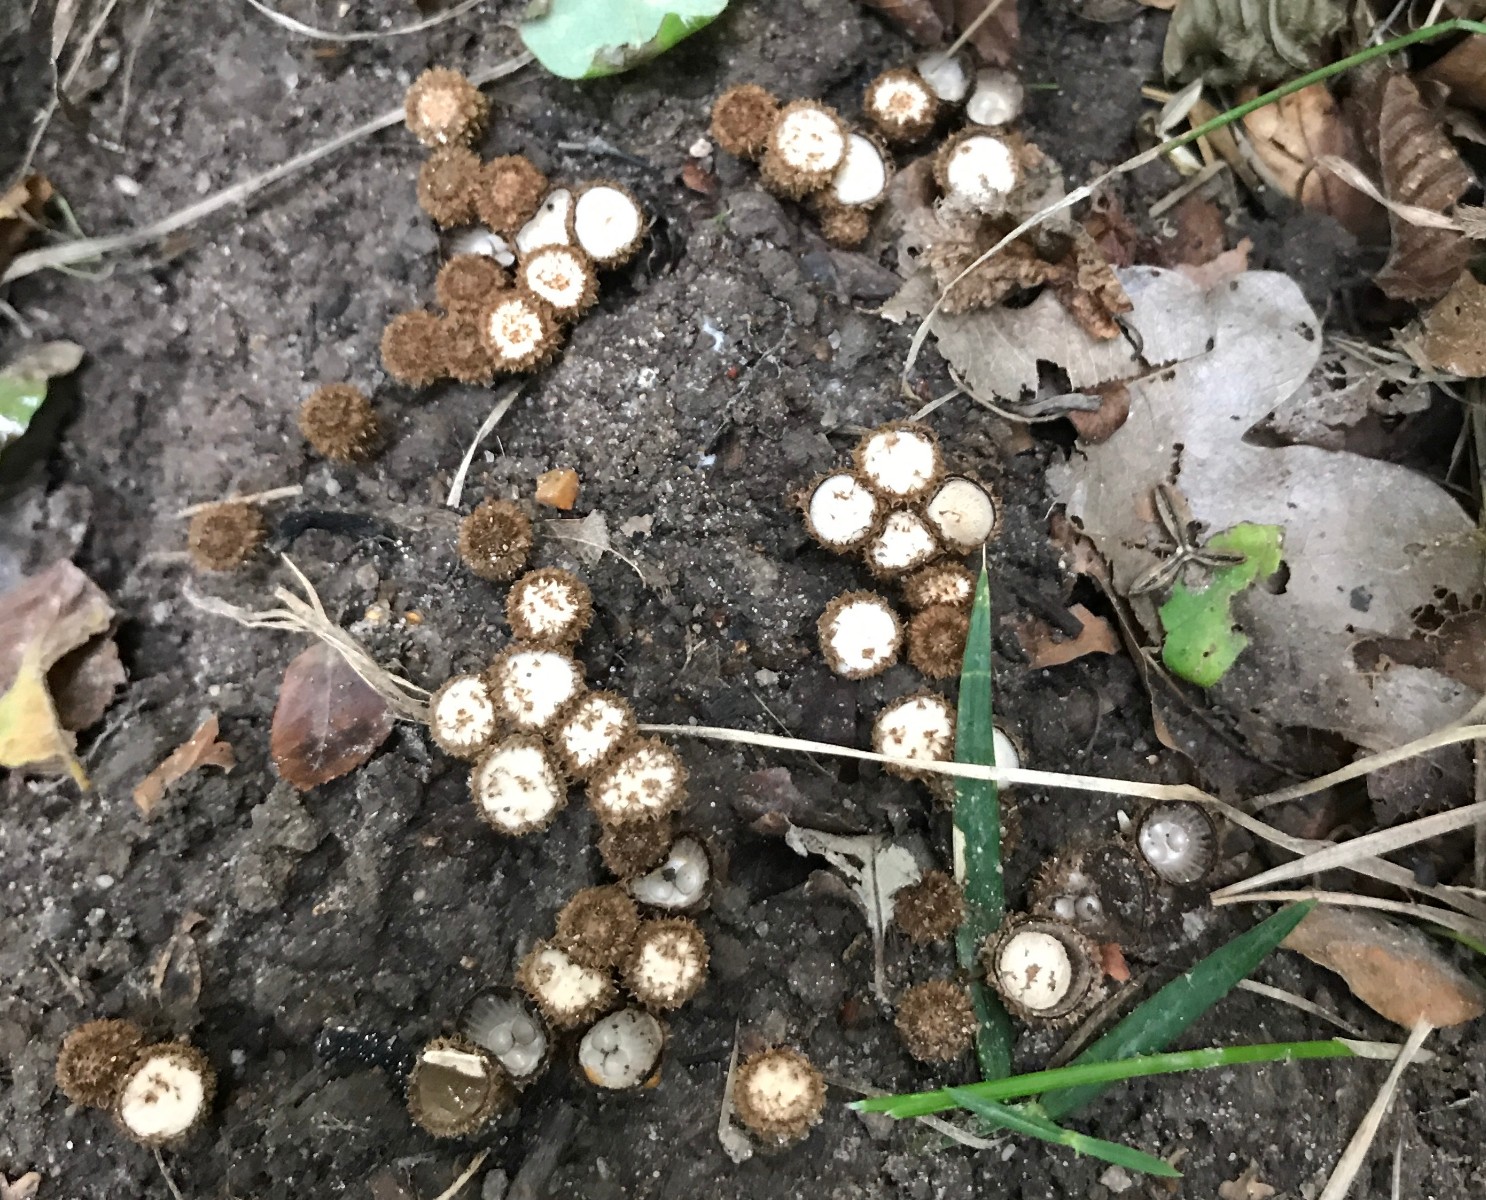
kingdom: Fungi
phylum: Basidiomycota
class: Agaricomycetes
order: Agaricales
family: Agaricaceae
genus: Cyathus
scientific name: Cyathus striatus
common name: stribet redesvamp
